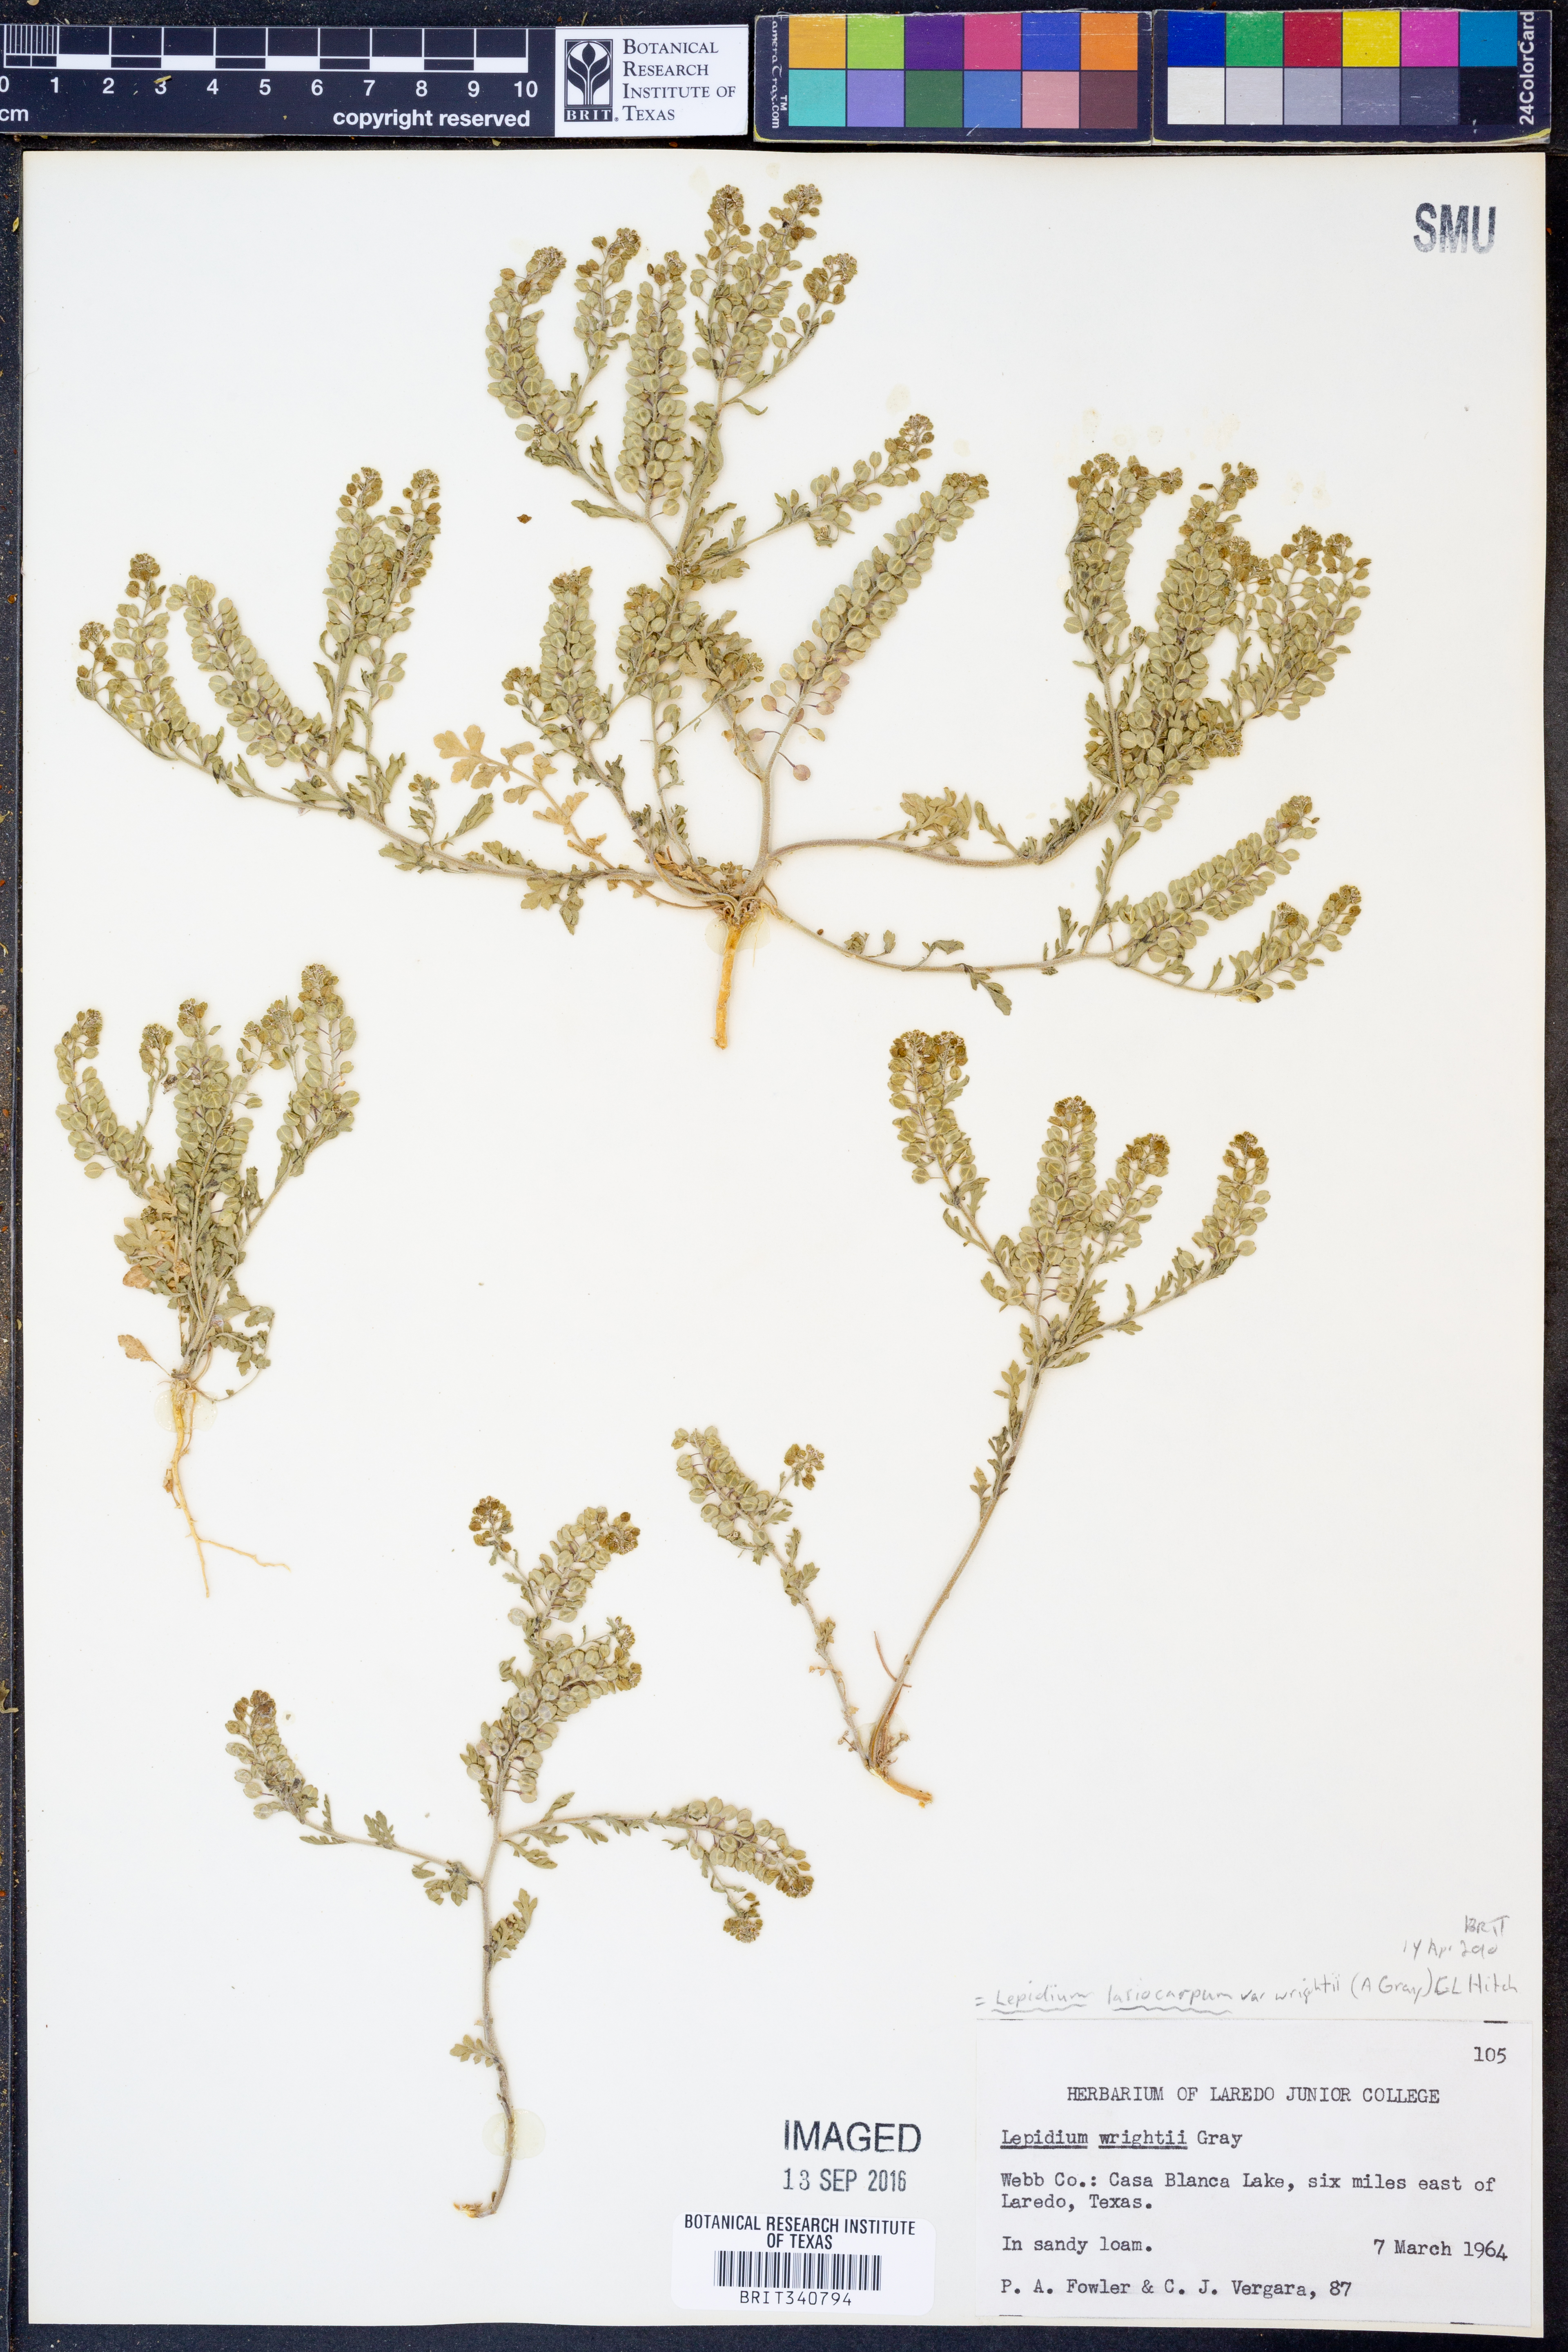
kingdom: Plantae
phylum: Tracheophyta
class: Magnoliopsida
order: Brassicales
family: Brassicaceae
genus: Lepidium
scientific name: Lepidium lasiocarpum
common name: Hairy-pod pepperwort
